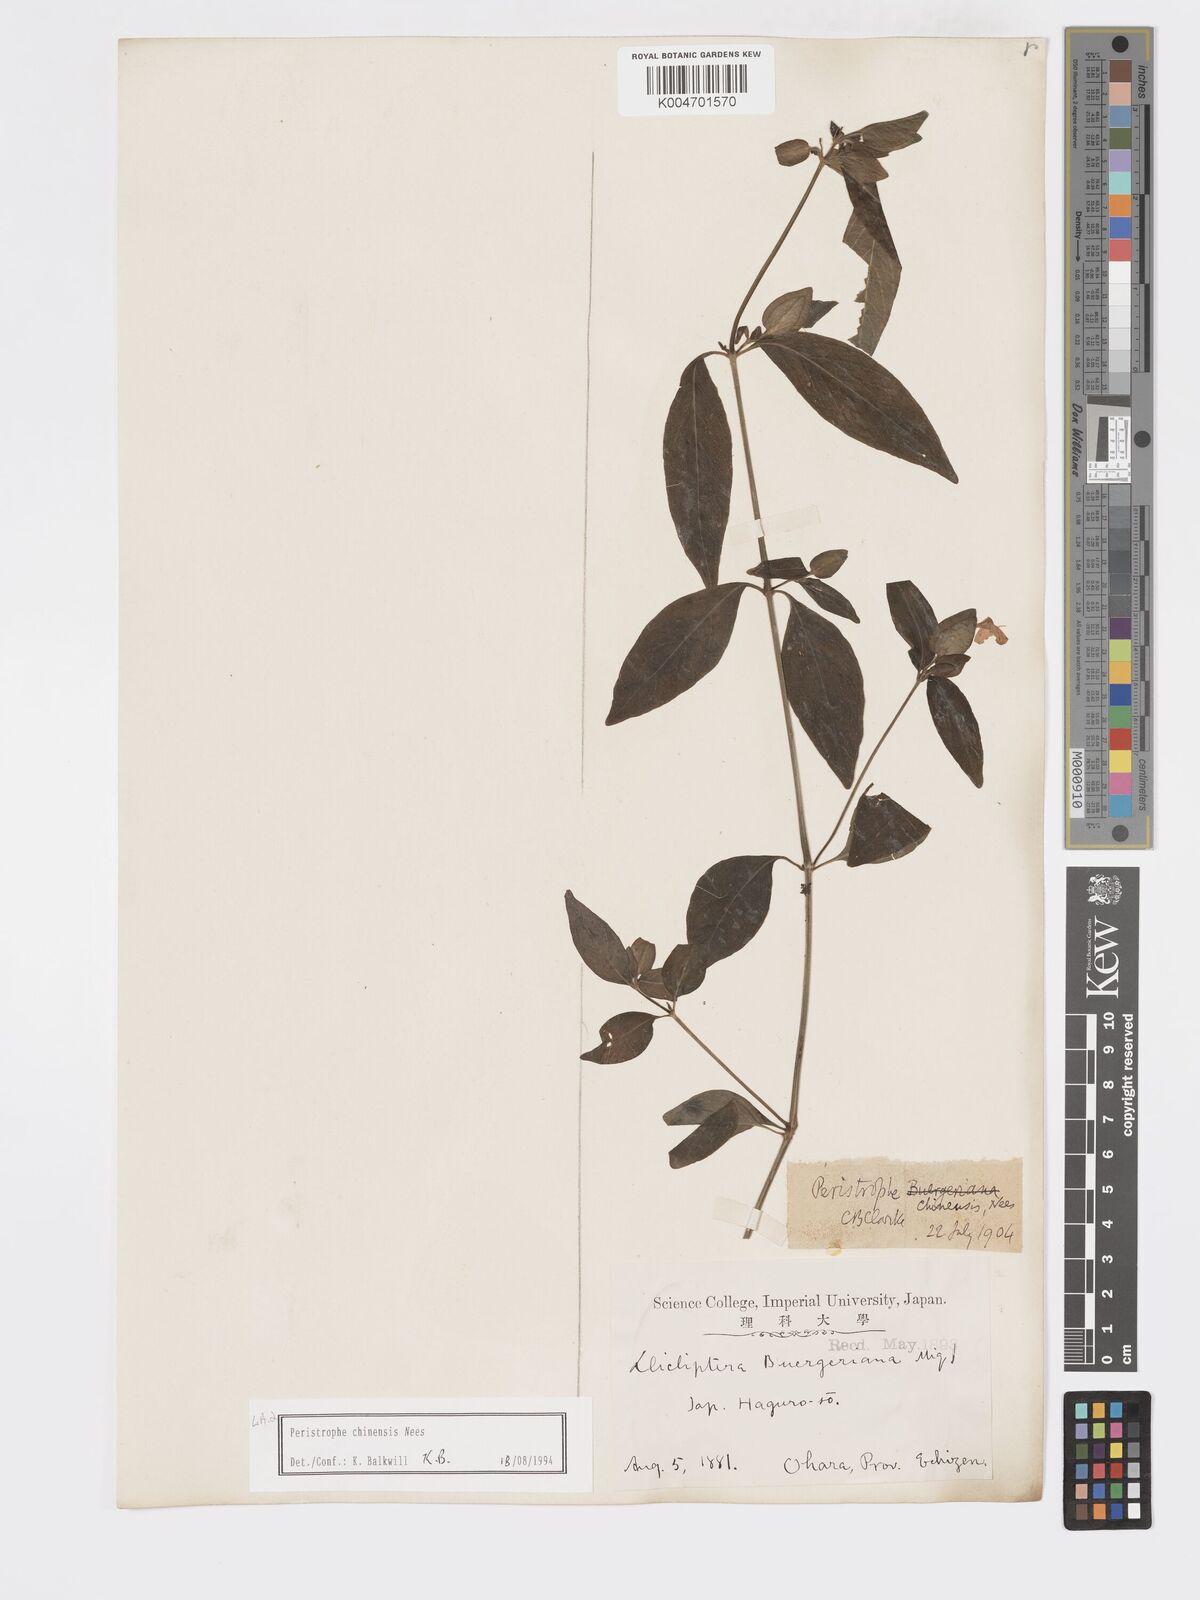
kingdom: Plantae
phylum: Tracheophyta
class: Magnoliopsida
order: Lamiales
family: Acanthaceae
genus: Dicliptera
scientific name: Dicliptera chinensis
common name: Chinese foldwing
